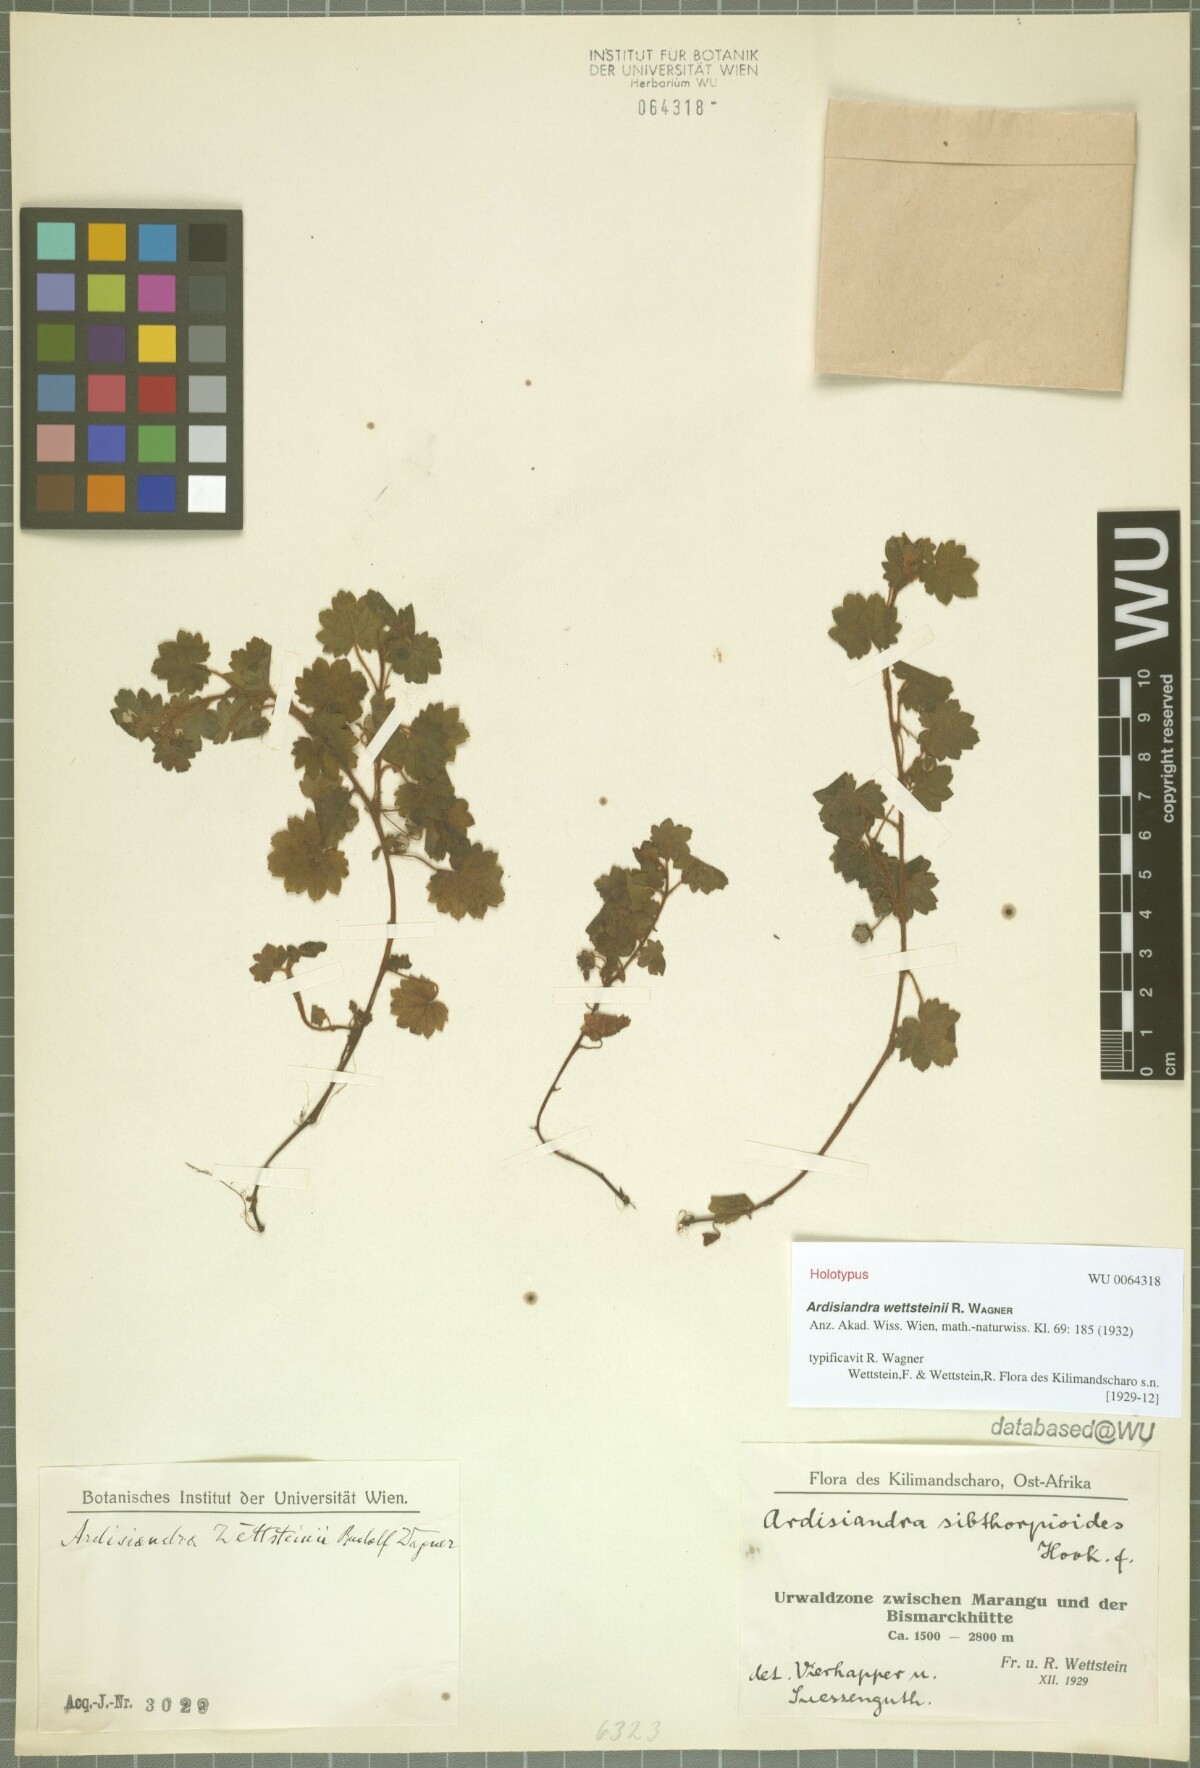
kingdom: Plantae
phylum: Tracheophyta
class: Magnoliopsida
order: Ericales
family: Primulaceae
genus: Ardisiandra
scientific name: Ardisiandra wettsteinii
